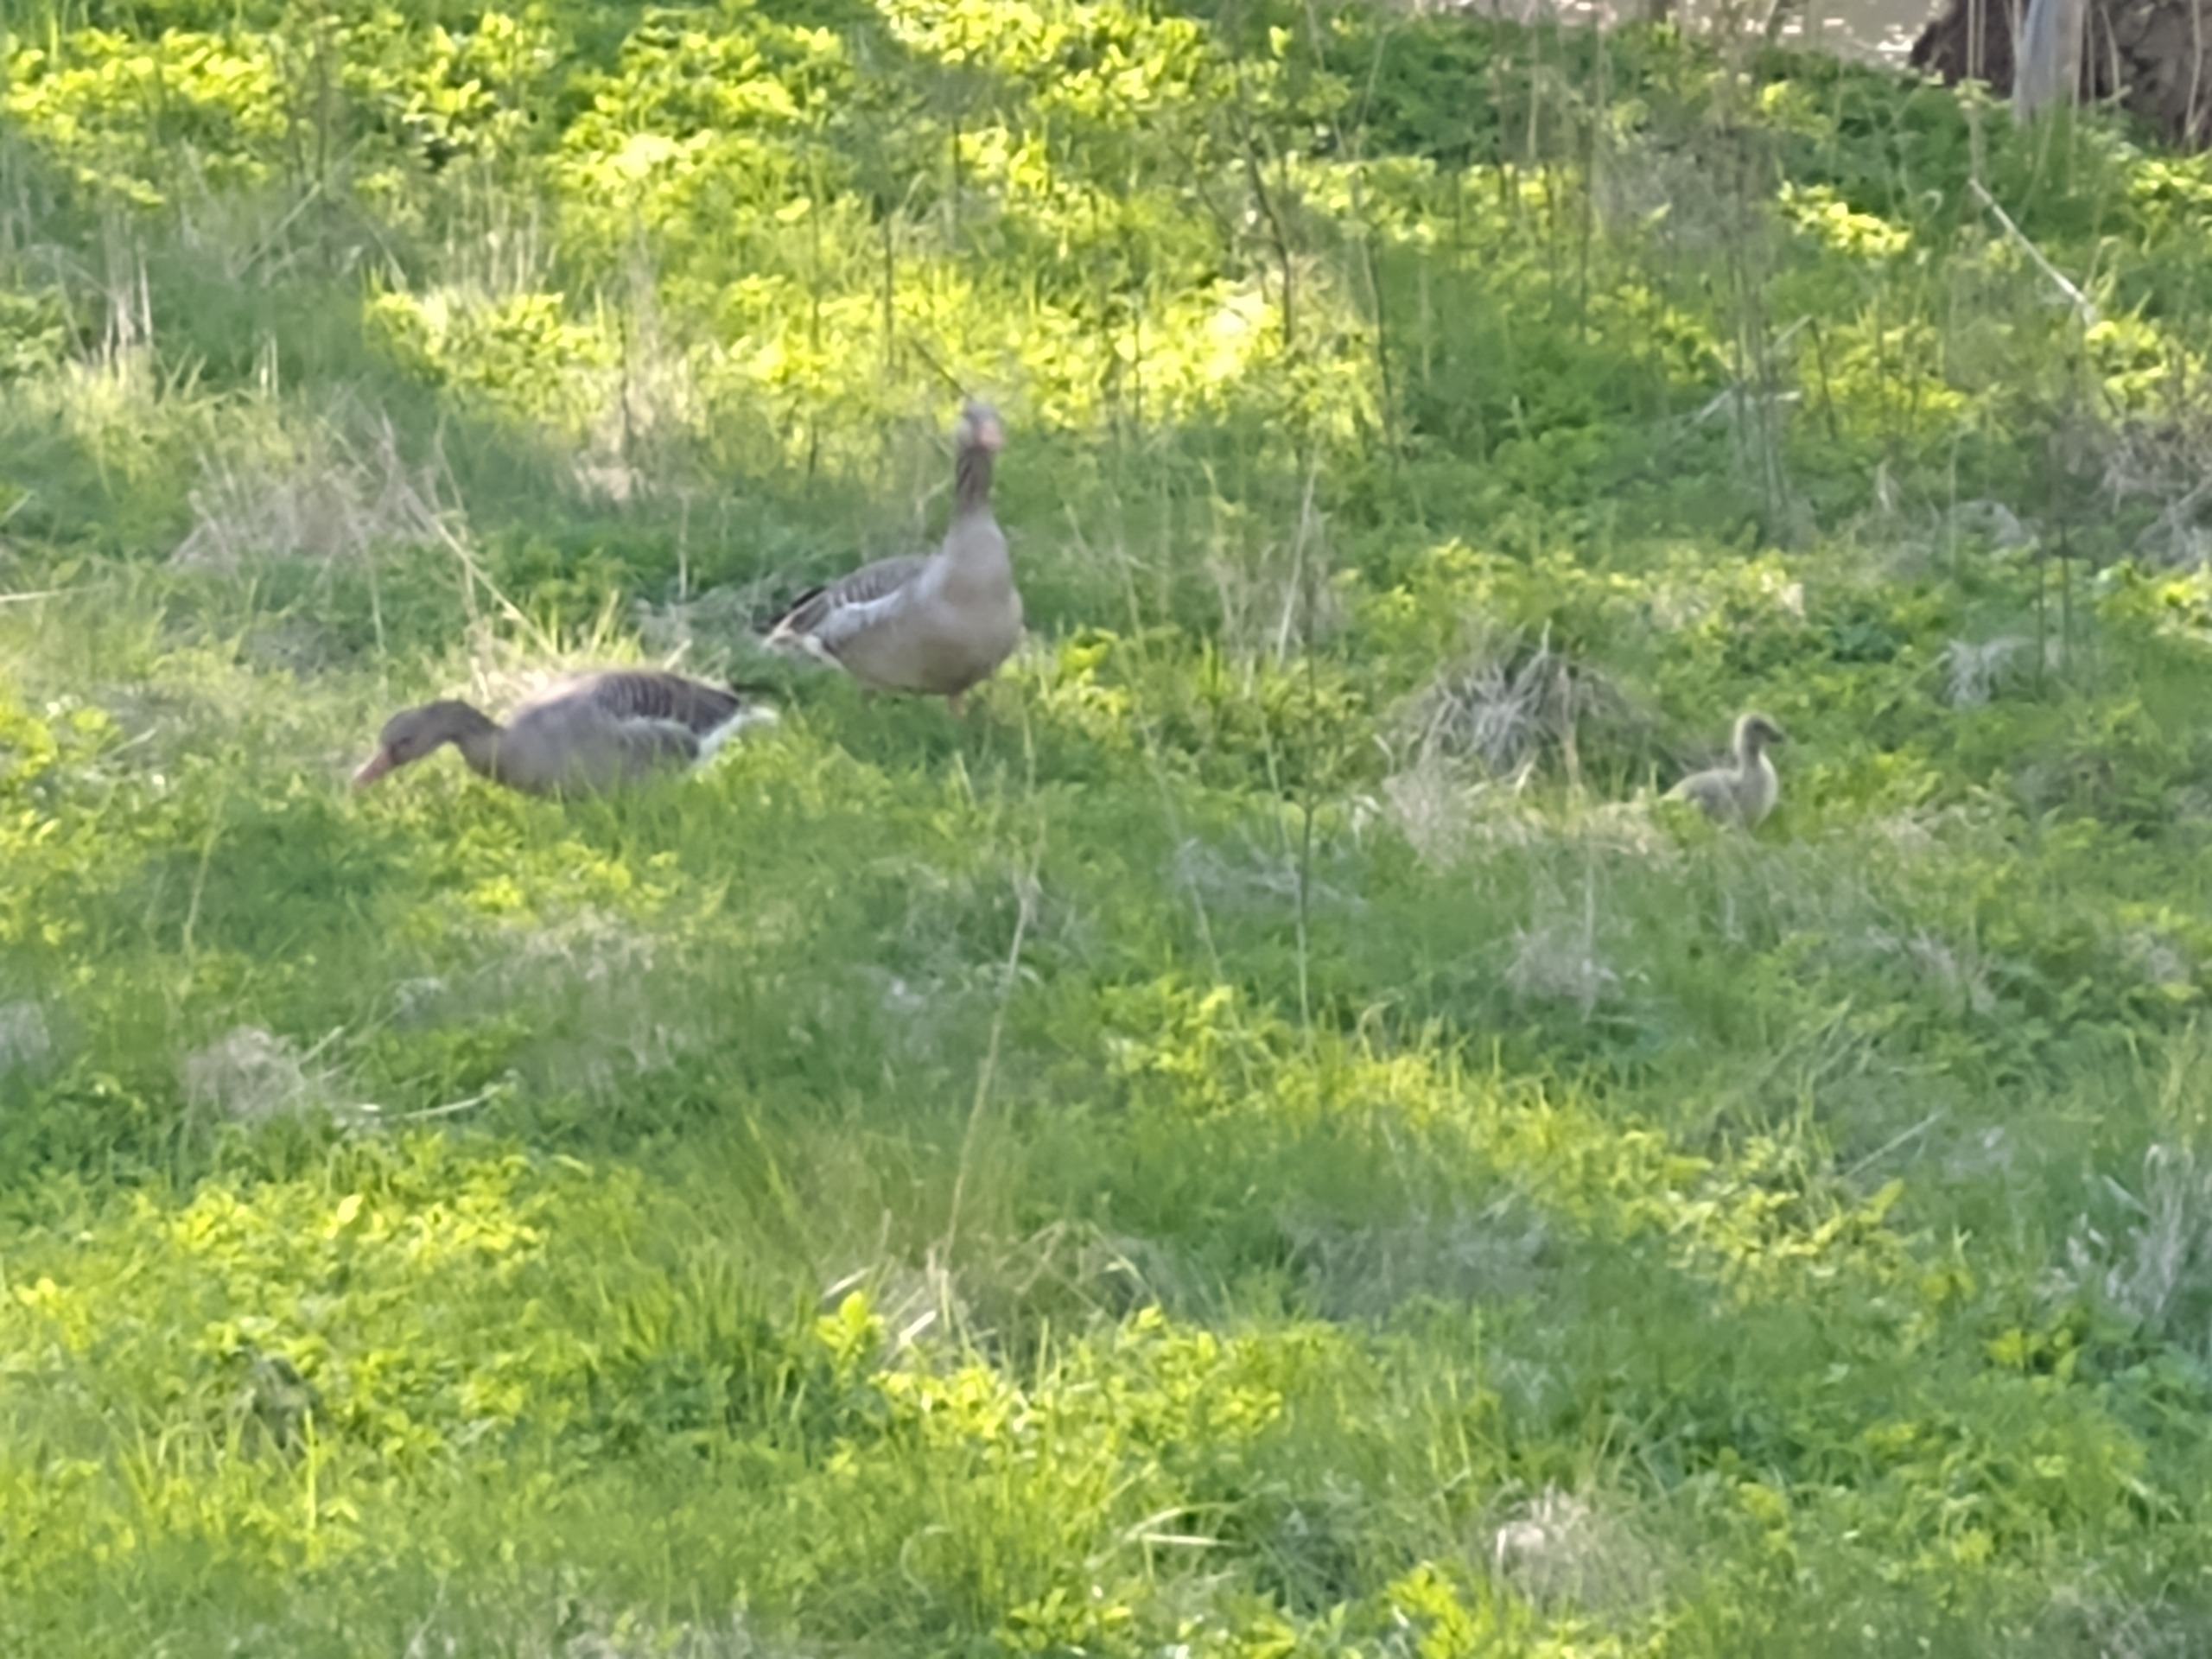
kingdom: Animalia
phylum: Chordata
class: Aves
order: Anseriformes
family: Anatidae
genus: Anser
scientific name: Anser anser
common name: Grågås
